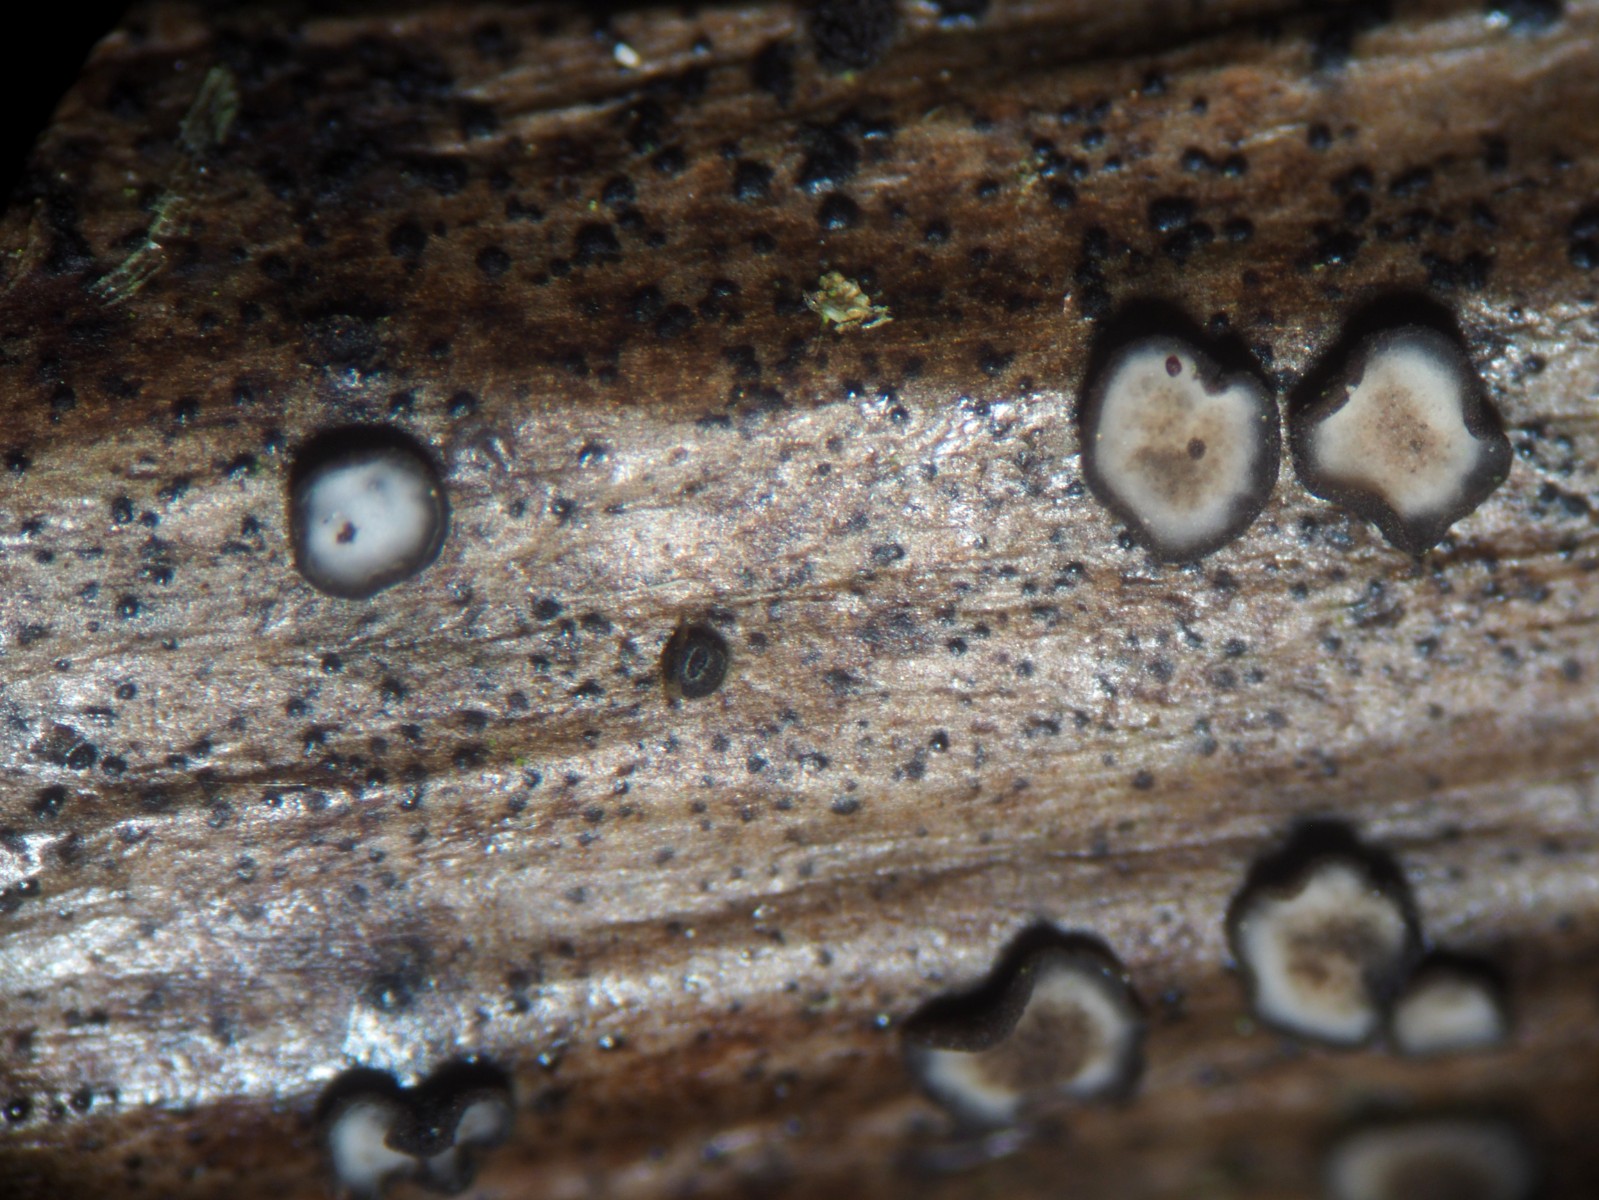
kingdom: Fungi
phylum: Ascomycota
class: Leotiomycetes
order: Helotiales
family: Mollisiaceae
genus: Mollisia
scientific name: Mollisia
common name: gråskive
